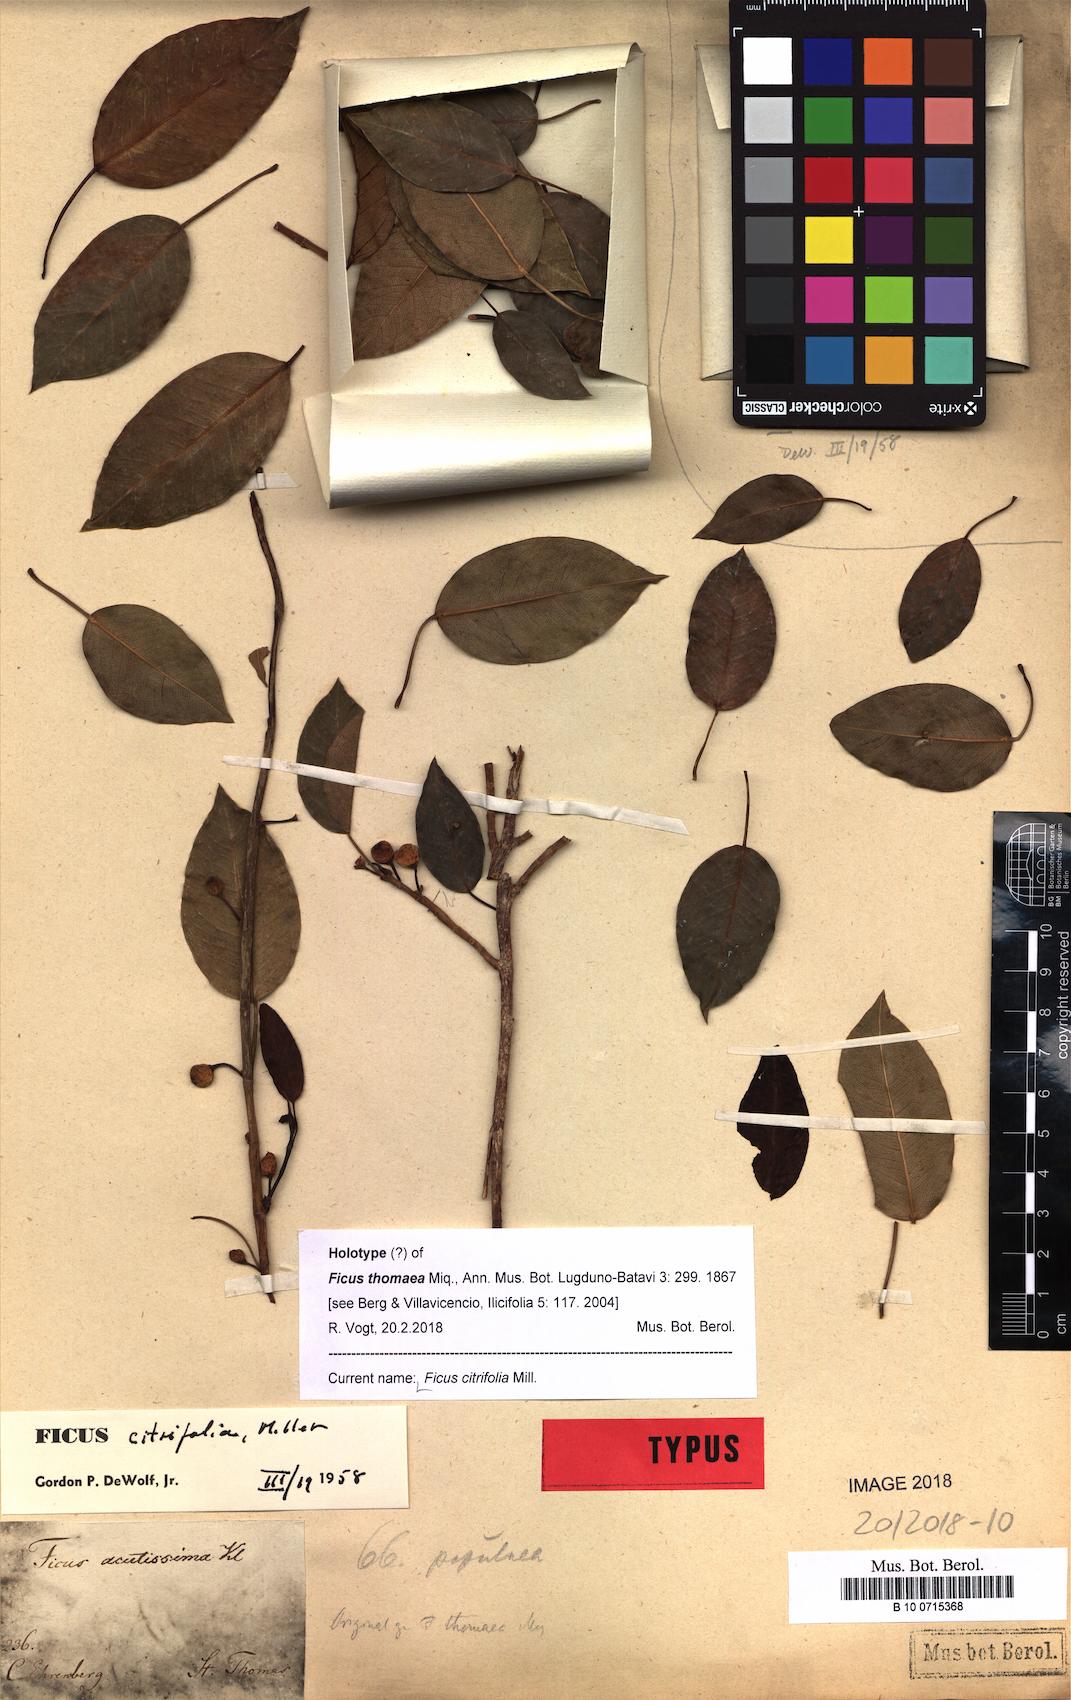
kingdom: Plantae
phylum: Tracheophyta
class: Magnoliopsida
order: Rosales
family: Moraceae
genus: Ficus
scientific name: Ficus citrifolia
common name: Strangler fig
